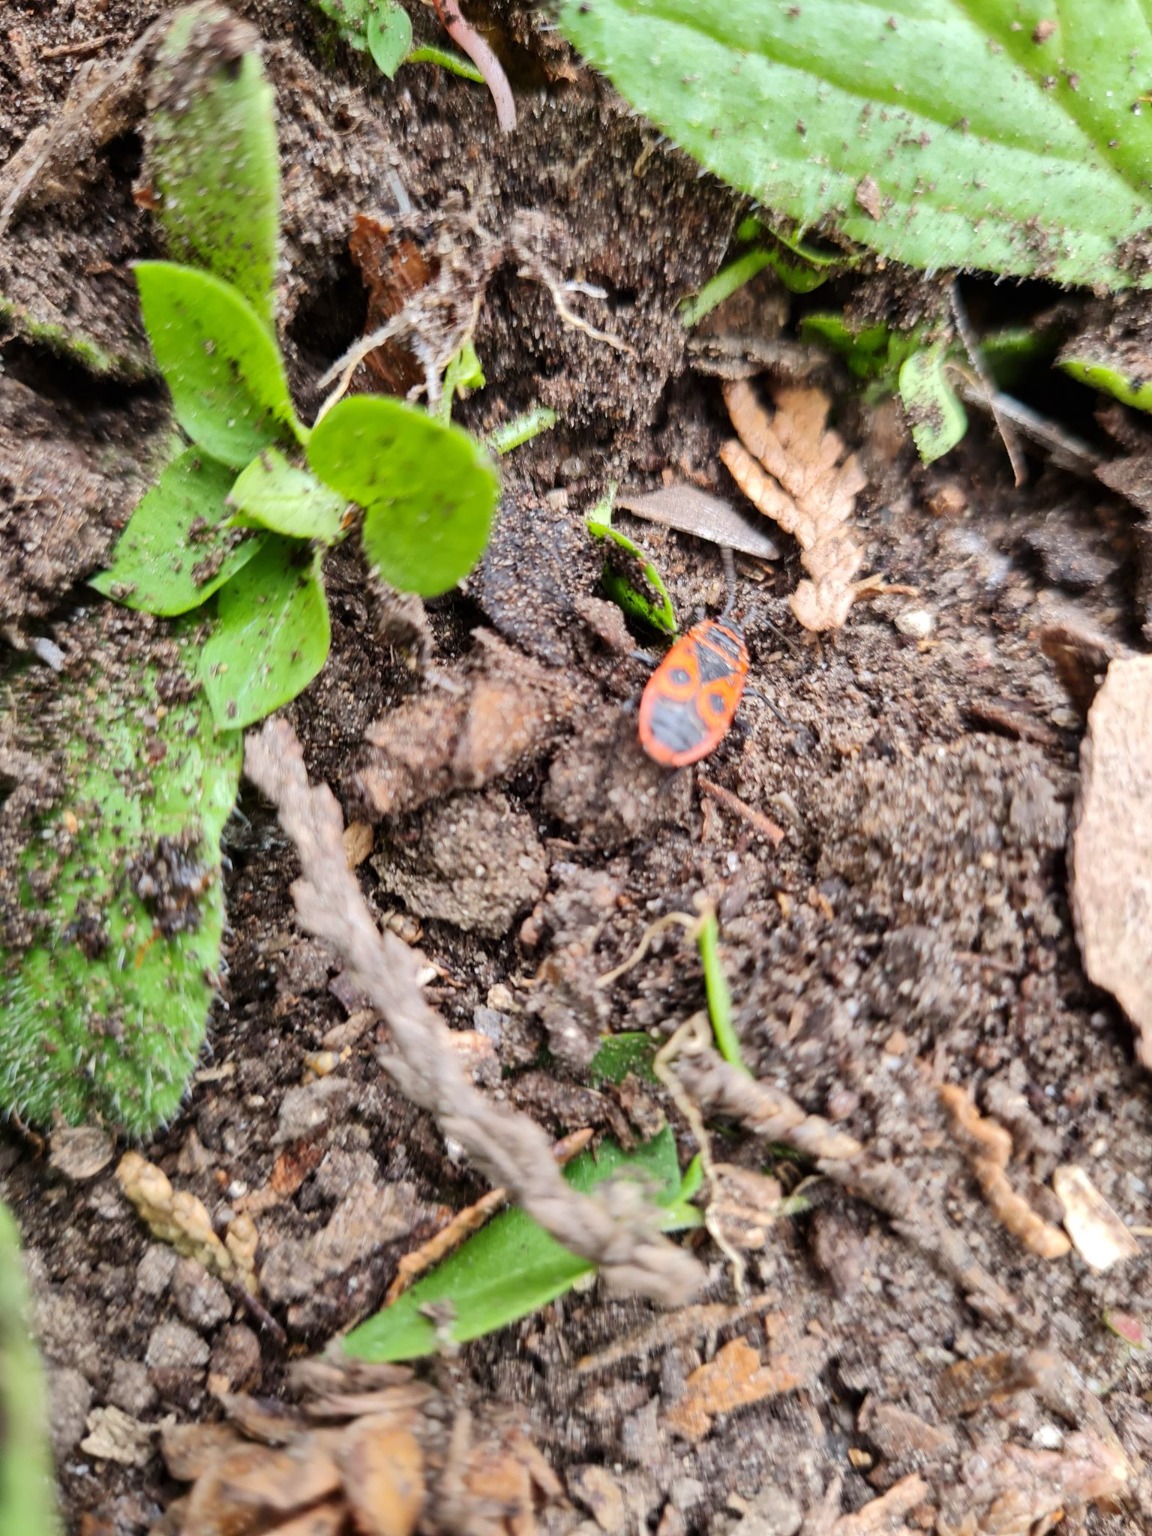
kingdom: Animalia
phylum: Arthropoda
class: Insecta
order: Hemiptera
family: Pyrrhocoridae
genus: Pyrrhocoris
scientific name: Pyrrhocoris apterus
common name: Ildtæge
